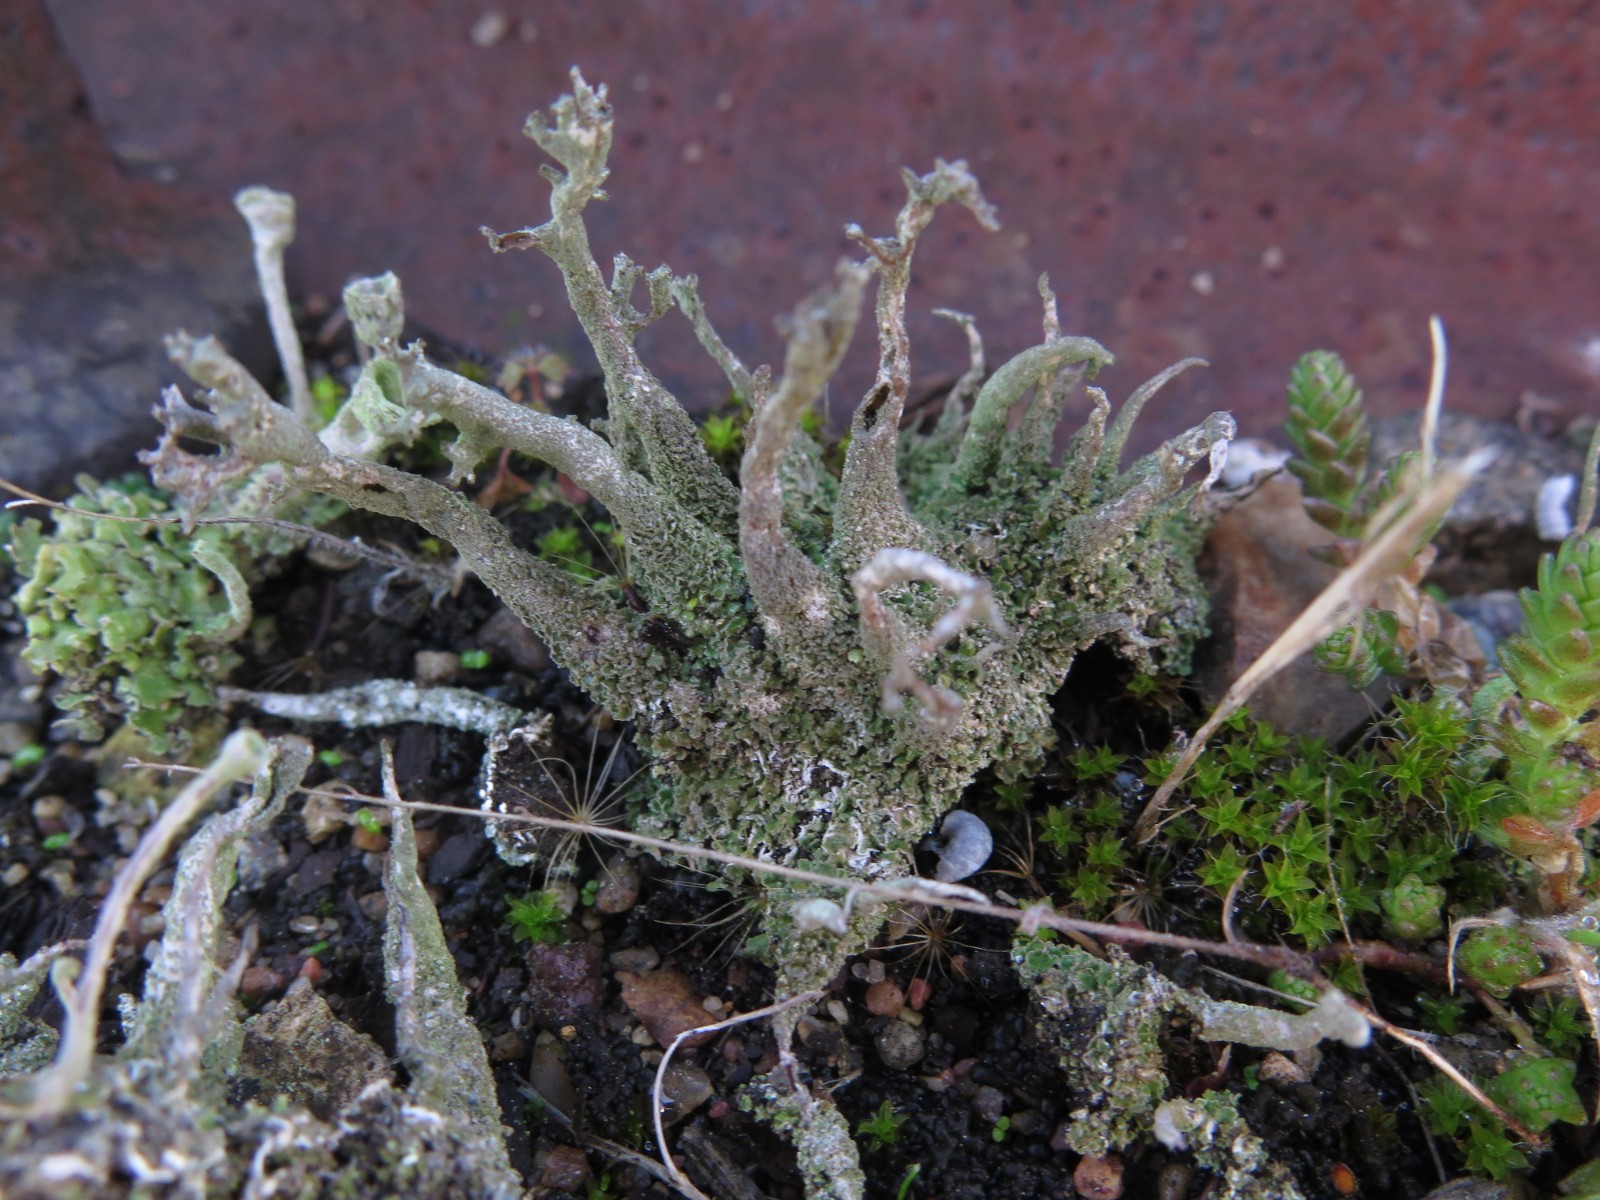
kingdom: Fungi
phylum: Ascomycota
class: Lecanoromycetes
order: Lecanorales
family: Cladoniaceae
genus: Cladonia
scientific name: Cladonia
